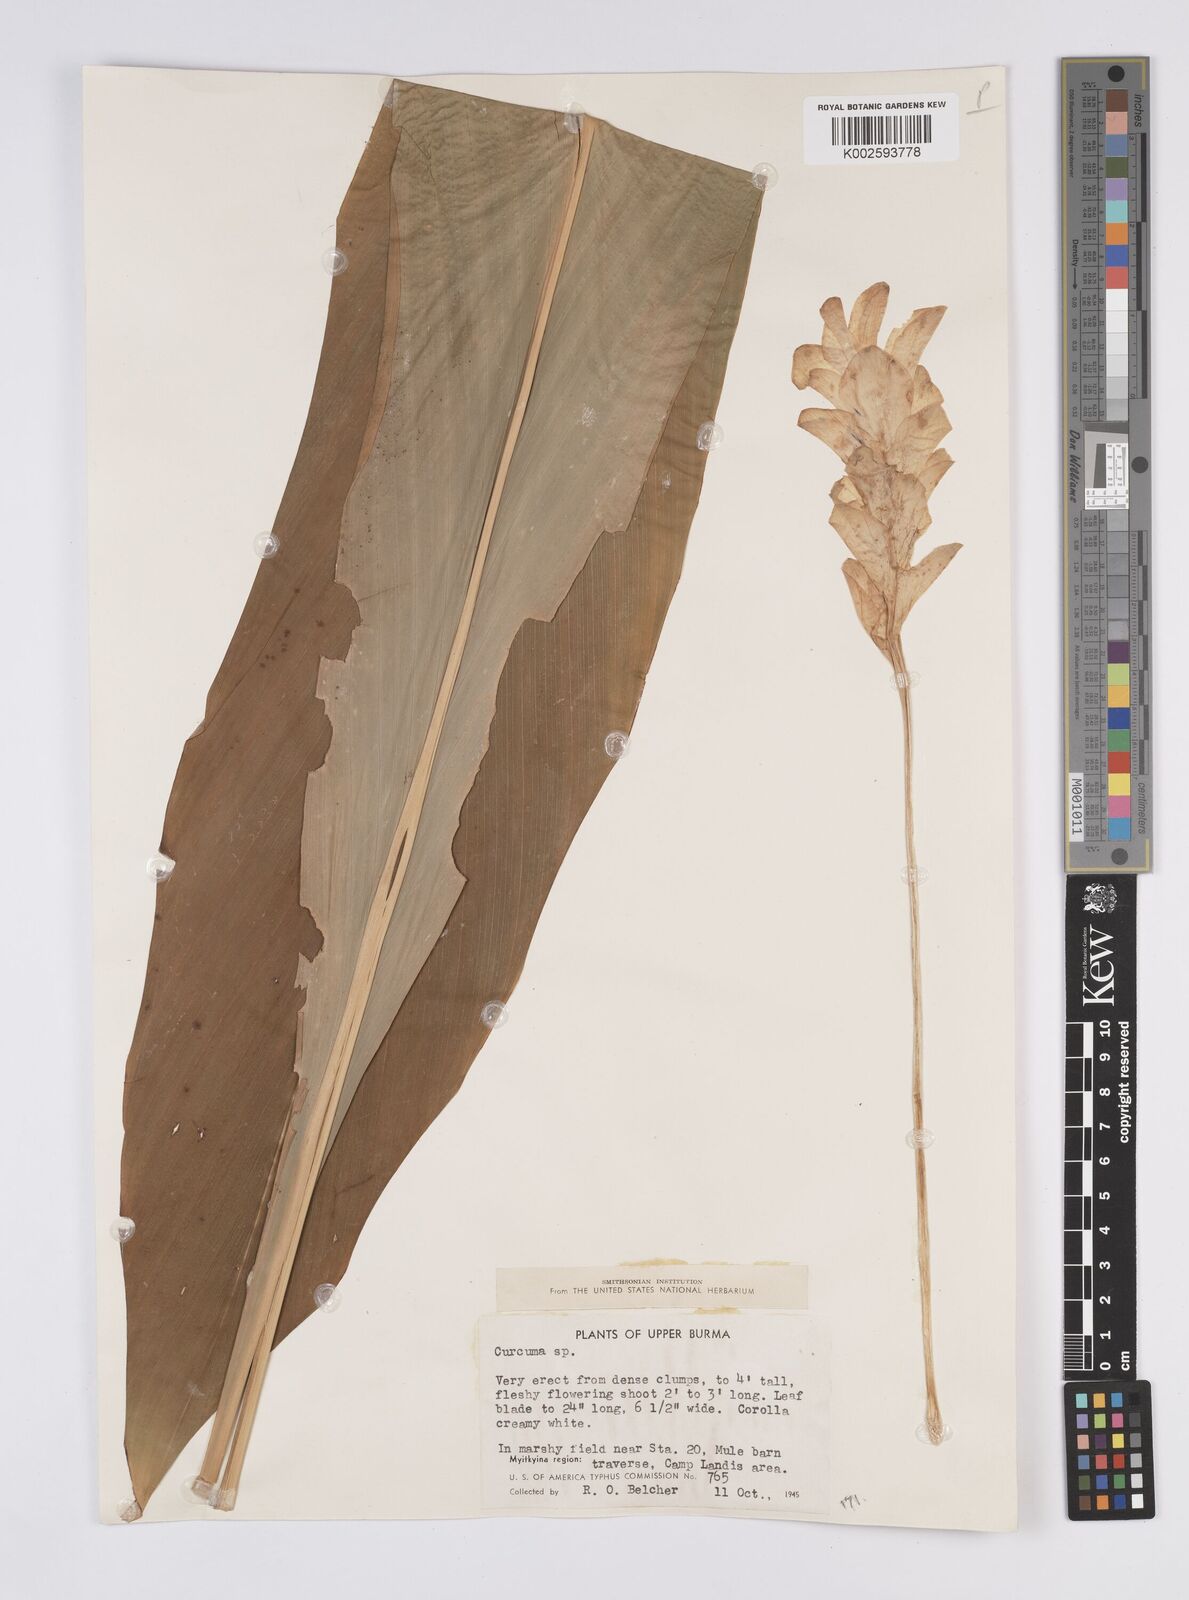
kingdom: Plantae
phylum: Tracheophyta
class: Liliopsida
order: Zingiberales
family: Zingiberaceae
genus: Curcuma
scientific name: Curcuma
